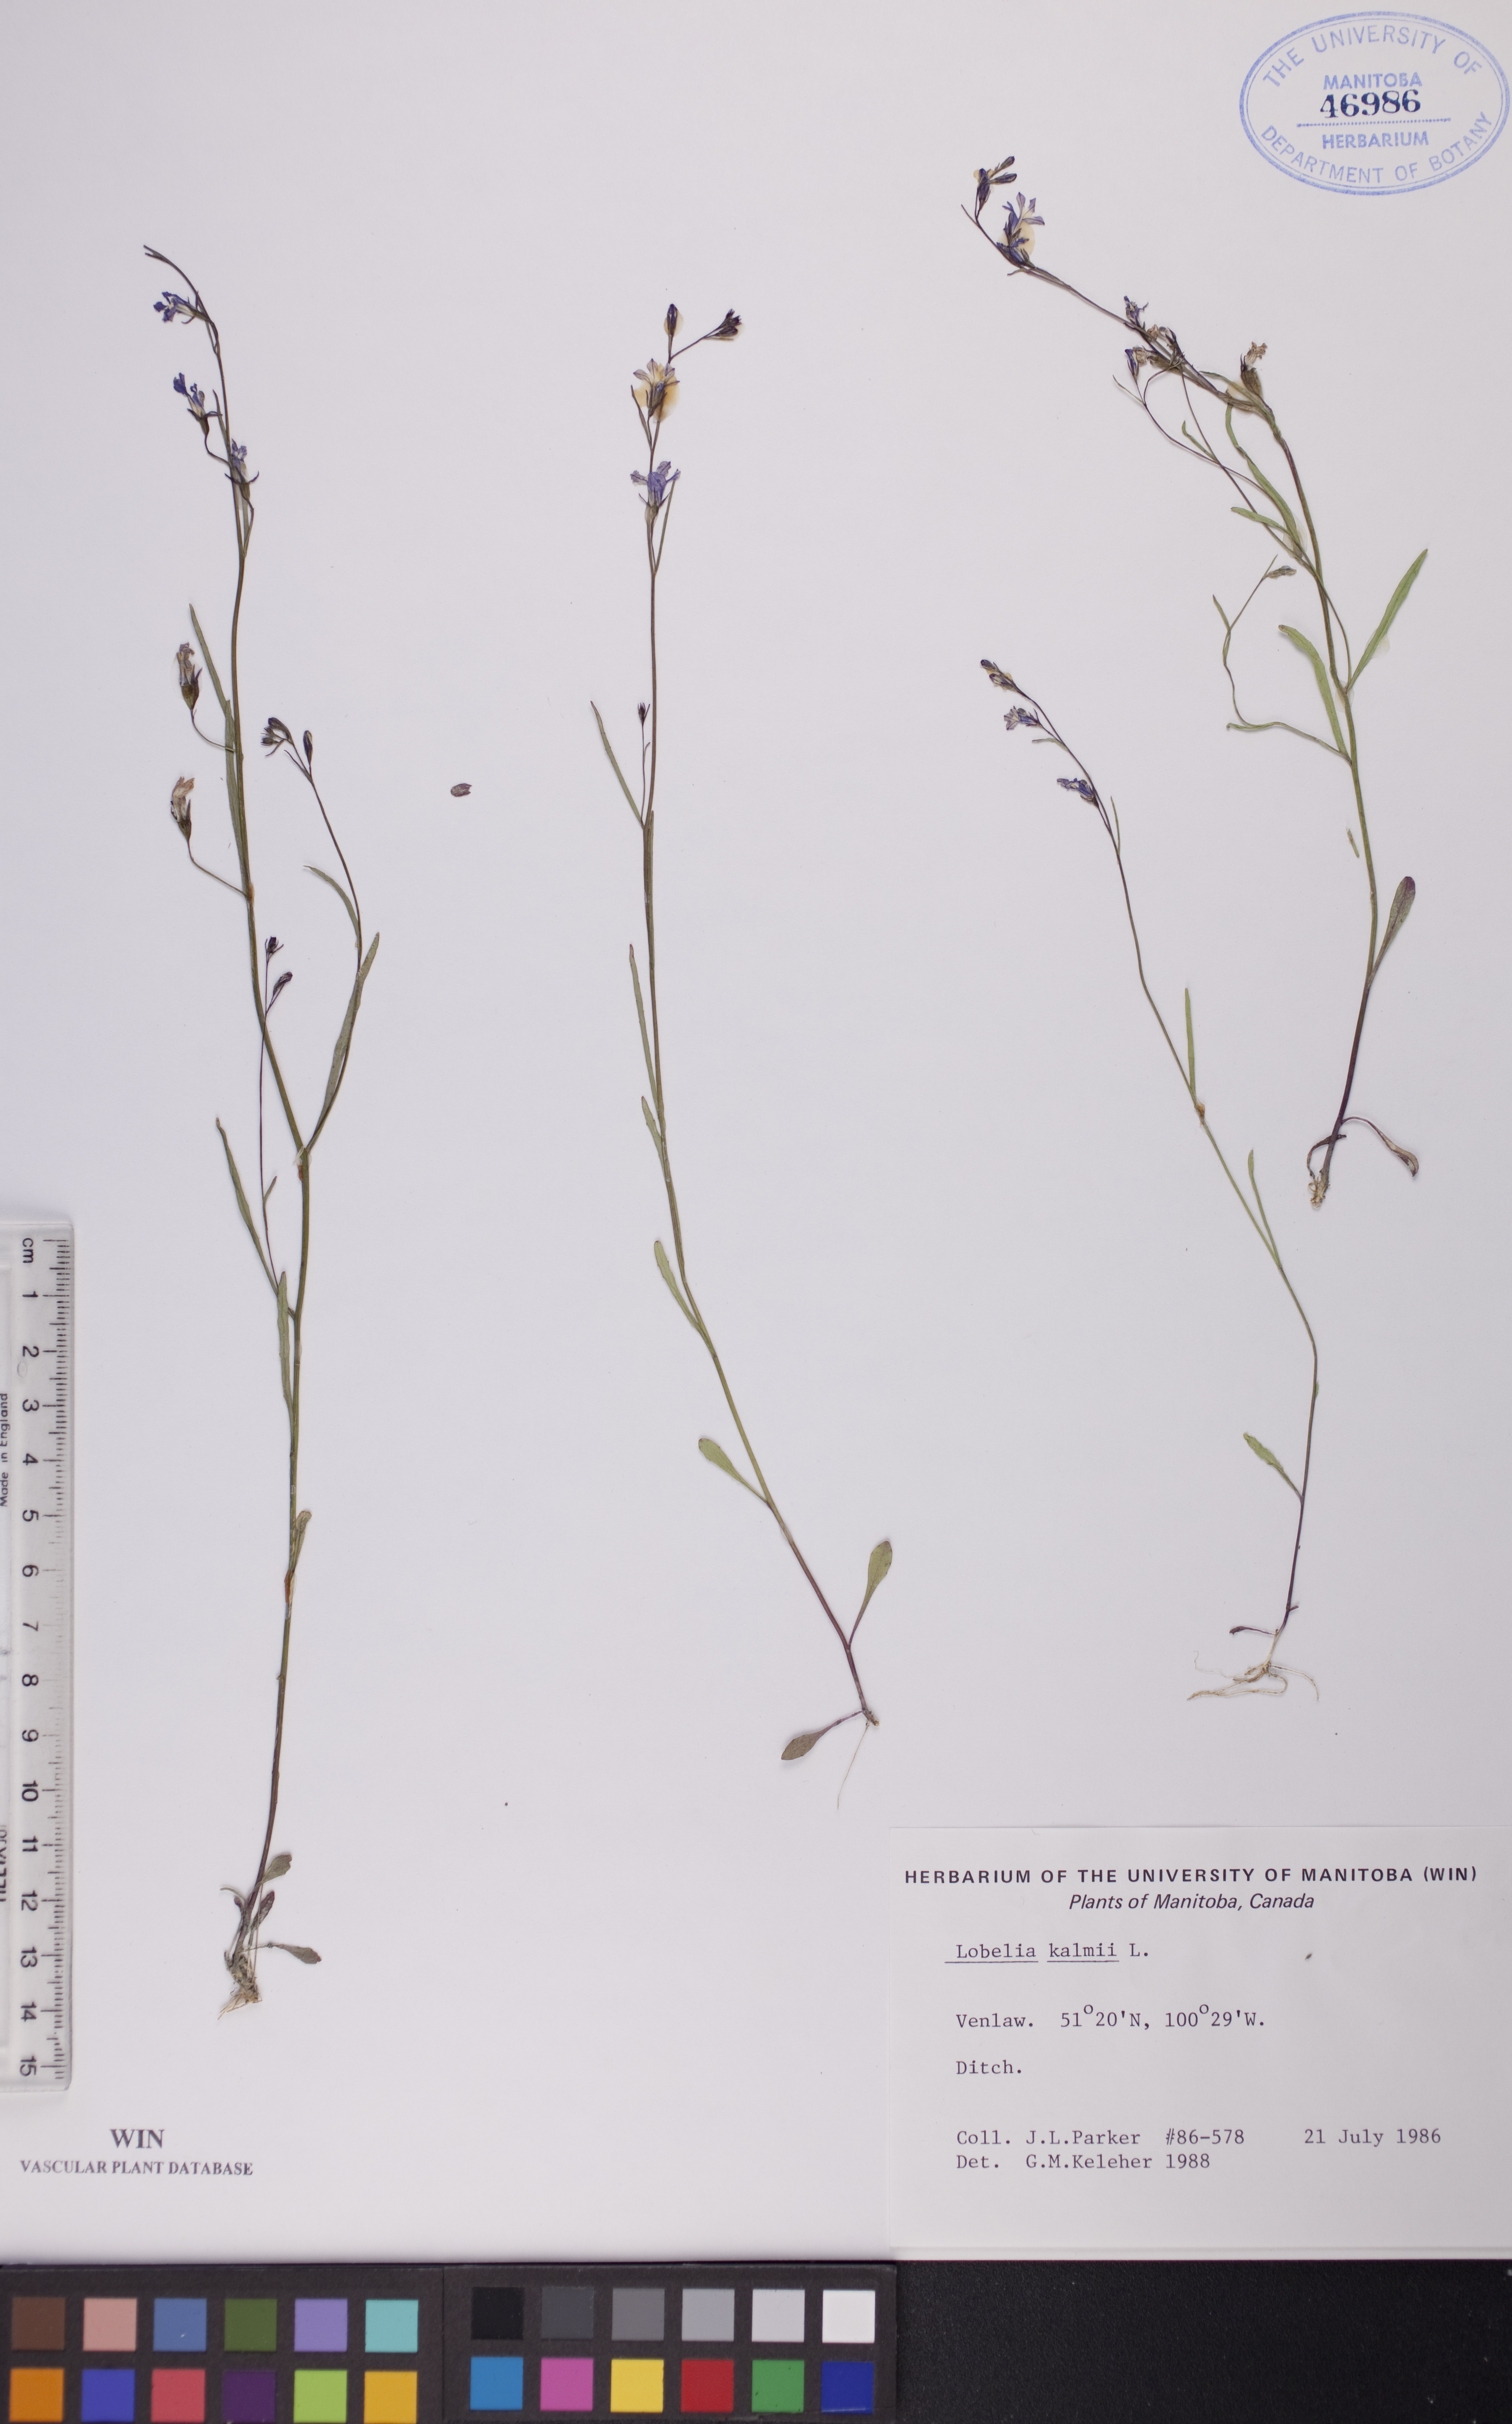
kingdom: Plantae
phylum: Tracheophyta
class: Magnoliopsida
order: Asterales
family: Campanulaceae
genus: Lobelia
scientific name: Lobelia kalmii
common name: Kalm's lobelia
